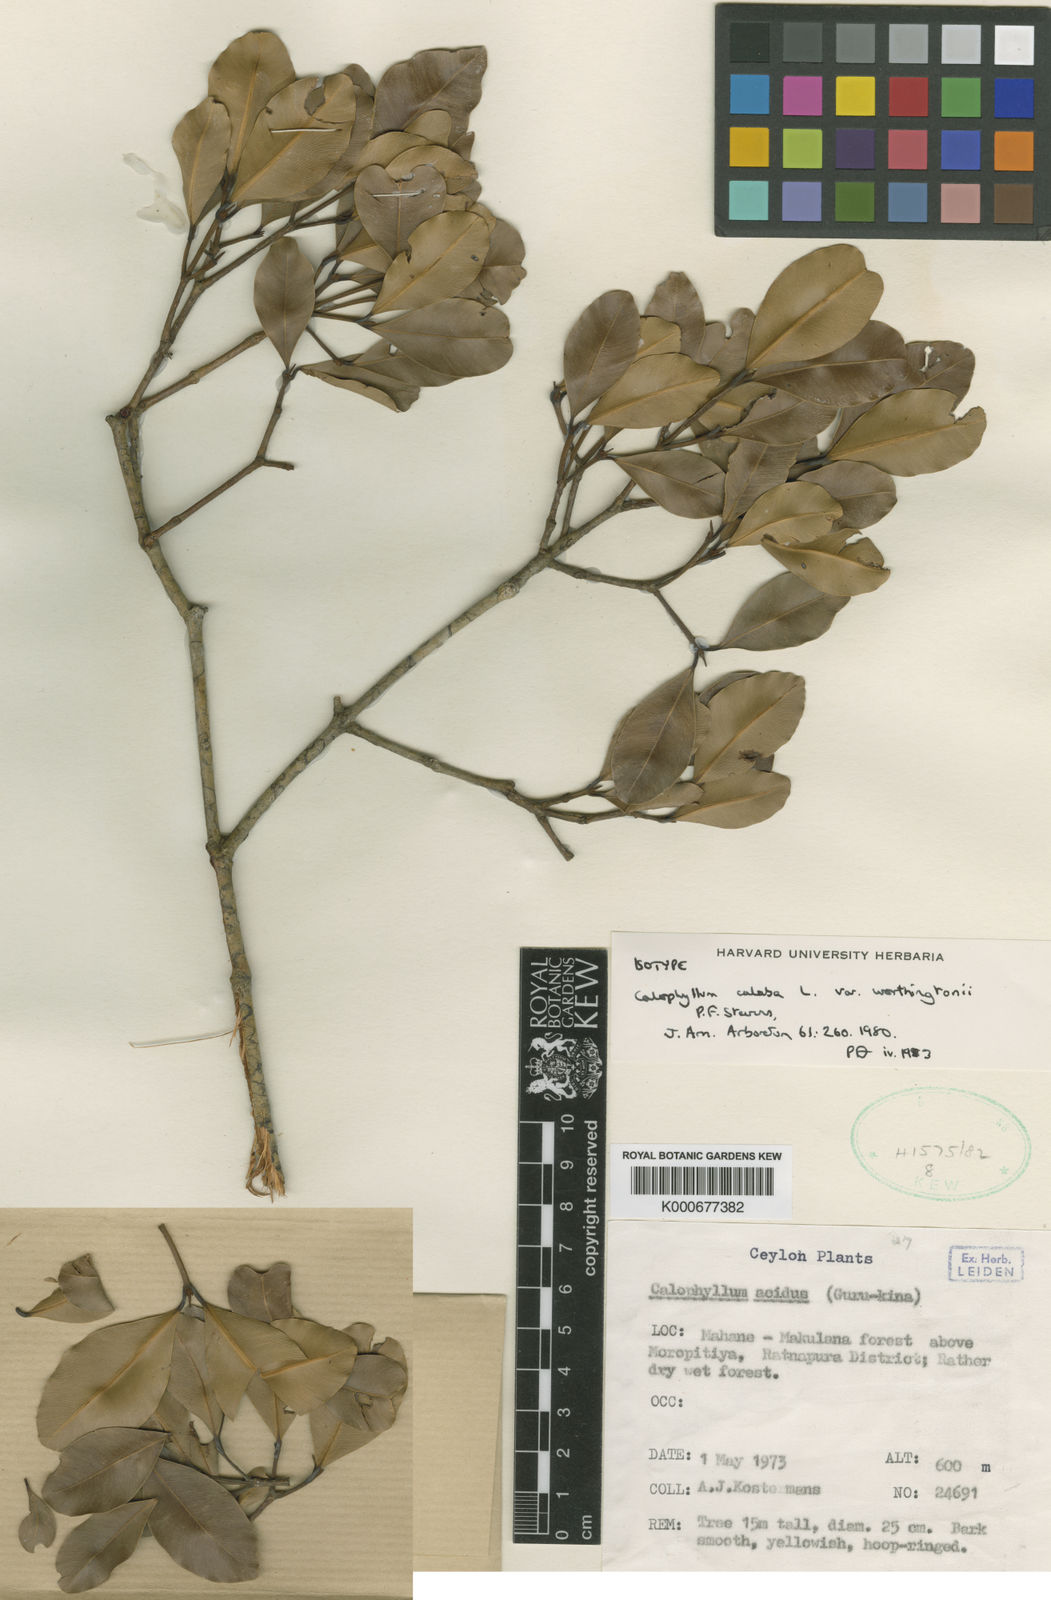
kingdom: Plantae
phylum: Tracheophyta
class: Magnoliopsida
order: Malpighiales
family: Calophyllaceae
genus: Calophyllum
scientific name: Calophyllum calaba
